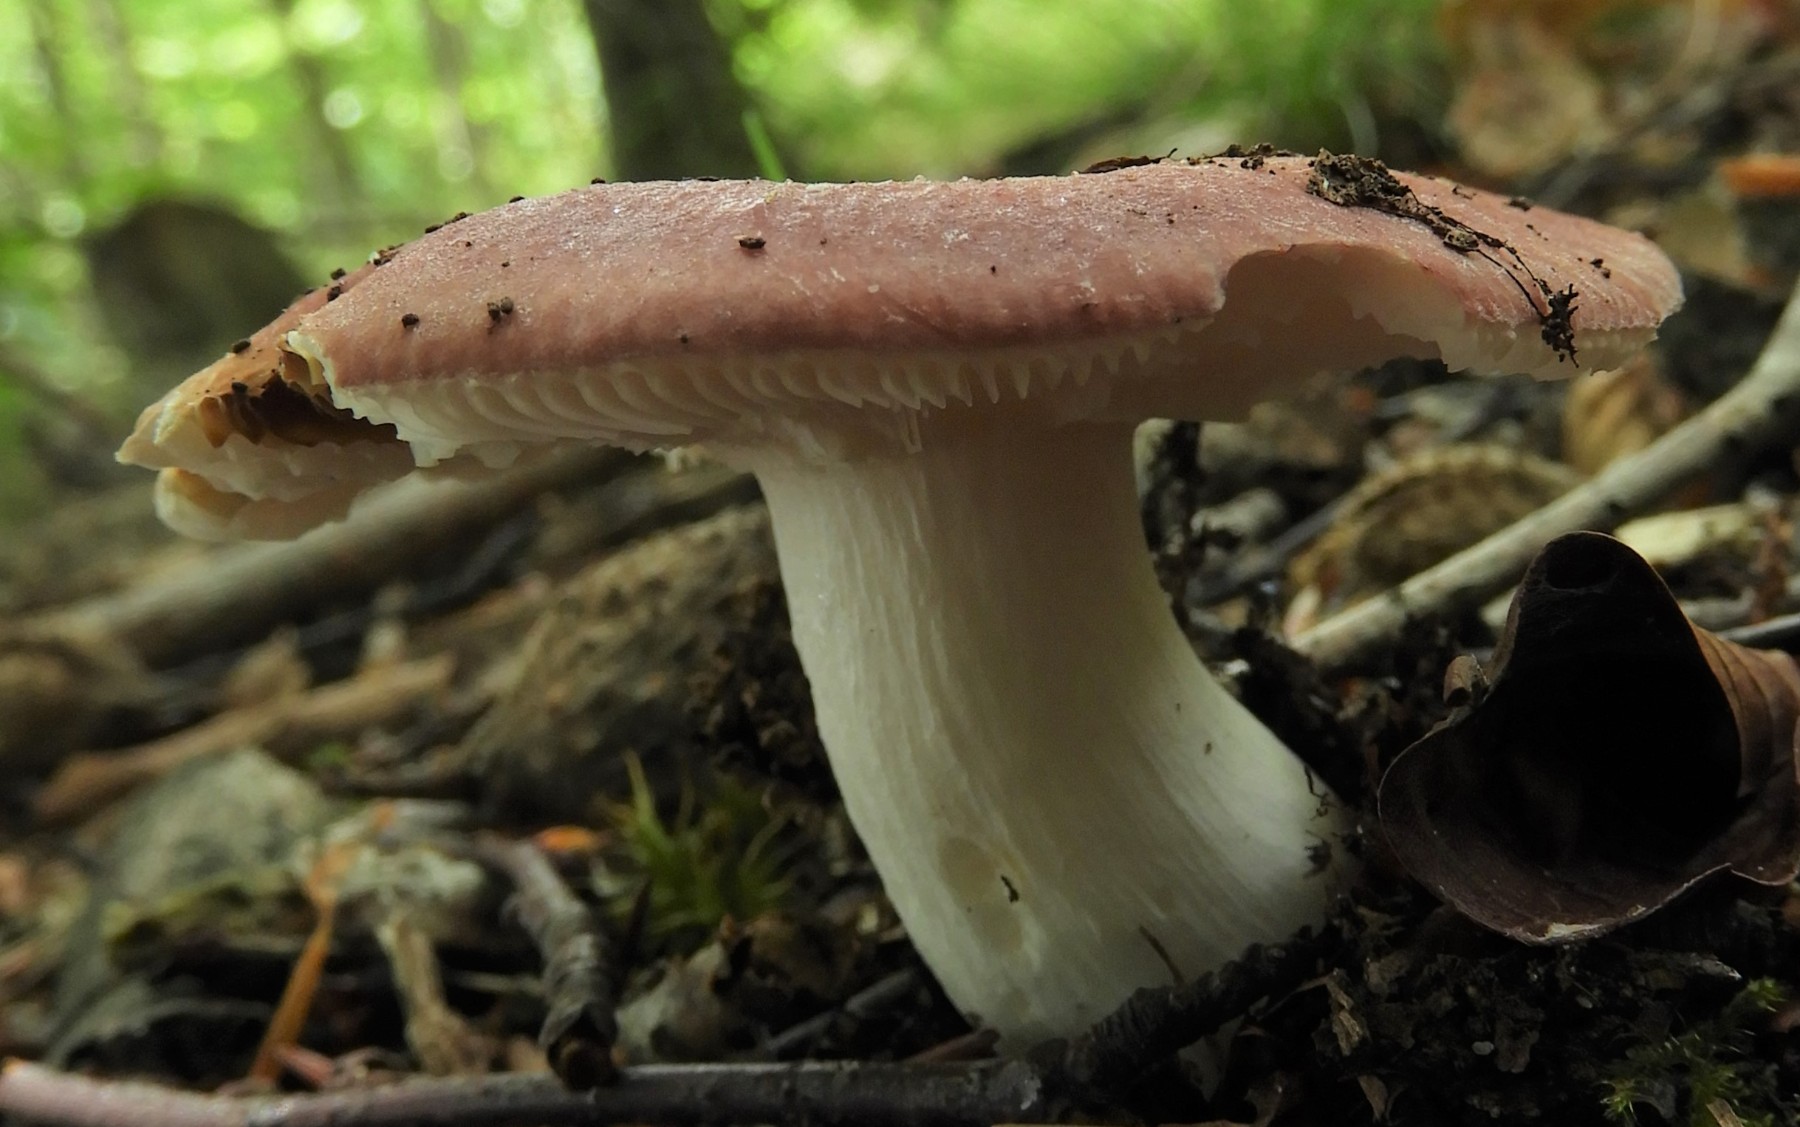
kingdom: Fungi
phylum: Basidiomycota
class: Agaricomycetes
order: Russulales
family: Russulaceae
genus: Russula
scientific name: Russula vesca
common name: spiselig skørhat
